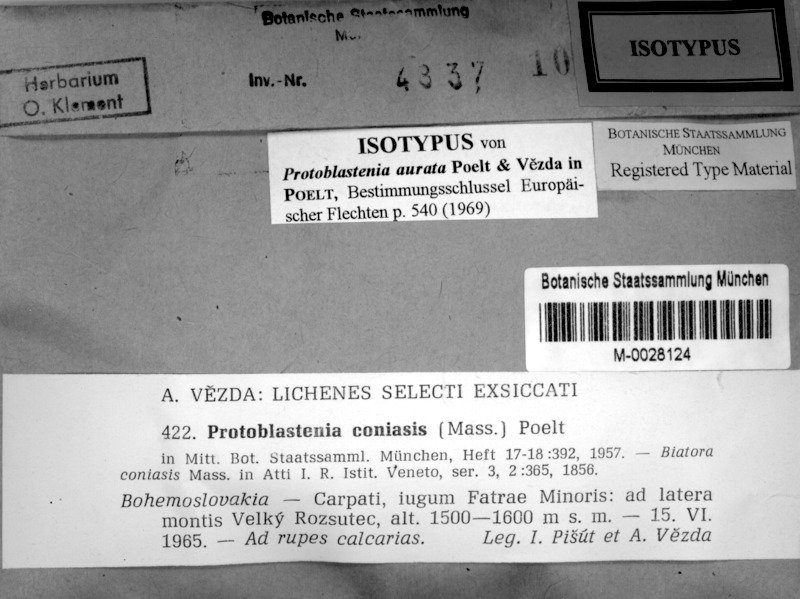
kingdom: Fungi
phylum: Ascomycota
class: Lecanoromycetes
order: Lecanorales
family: Psoraceae
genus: Protoblastenia
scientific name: Protoblastenia aurata
